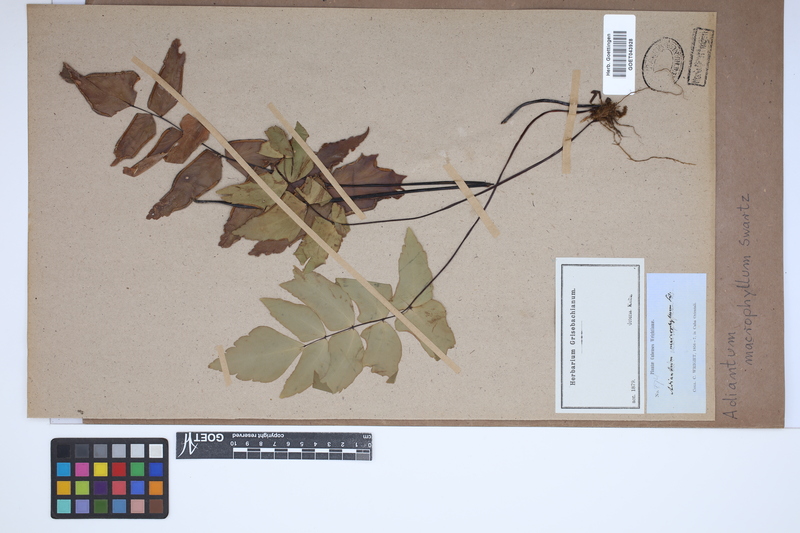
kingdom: Plantae
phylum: Tracheophyta
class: Polypodiopsida
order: Polypodiales
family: Pteridaceae
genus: Adiantum
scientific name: Adiantum macrophyllum
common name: Largeleaf maidenhair
